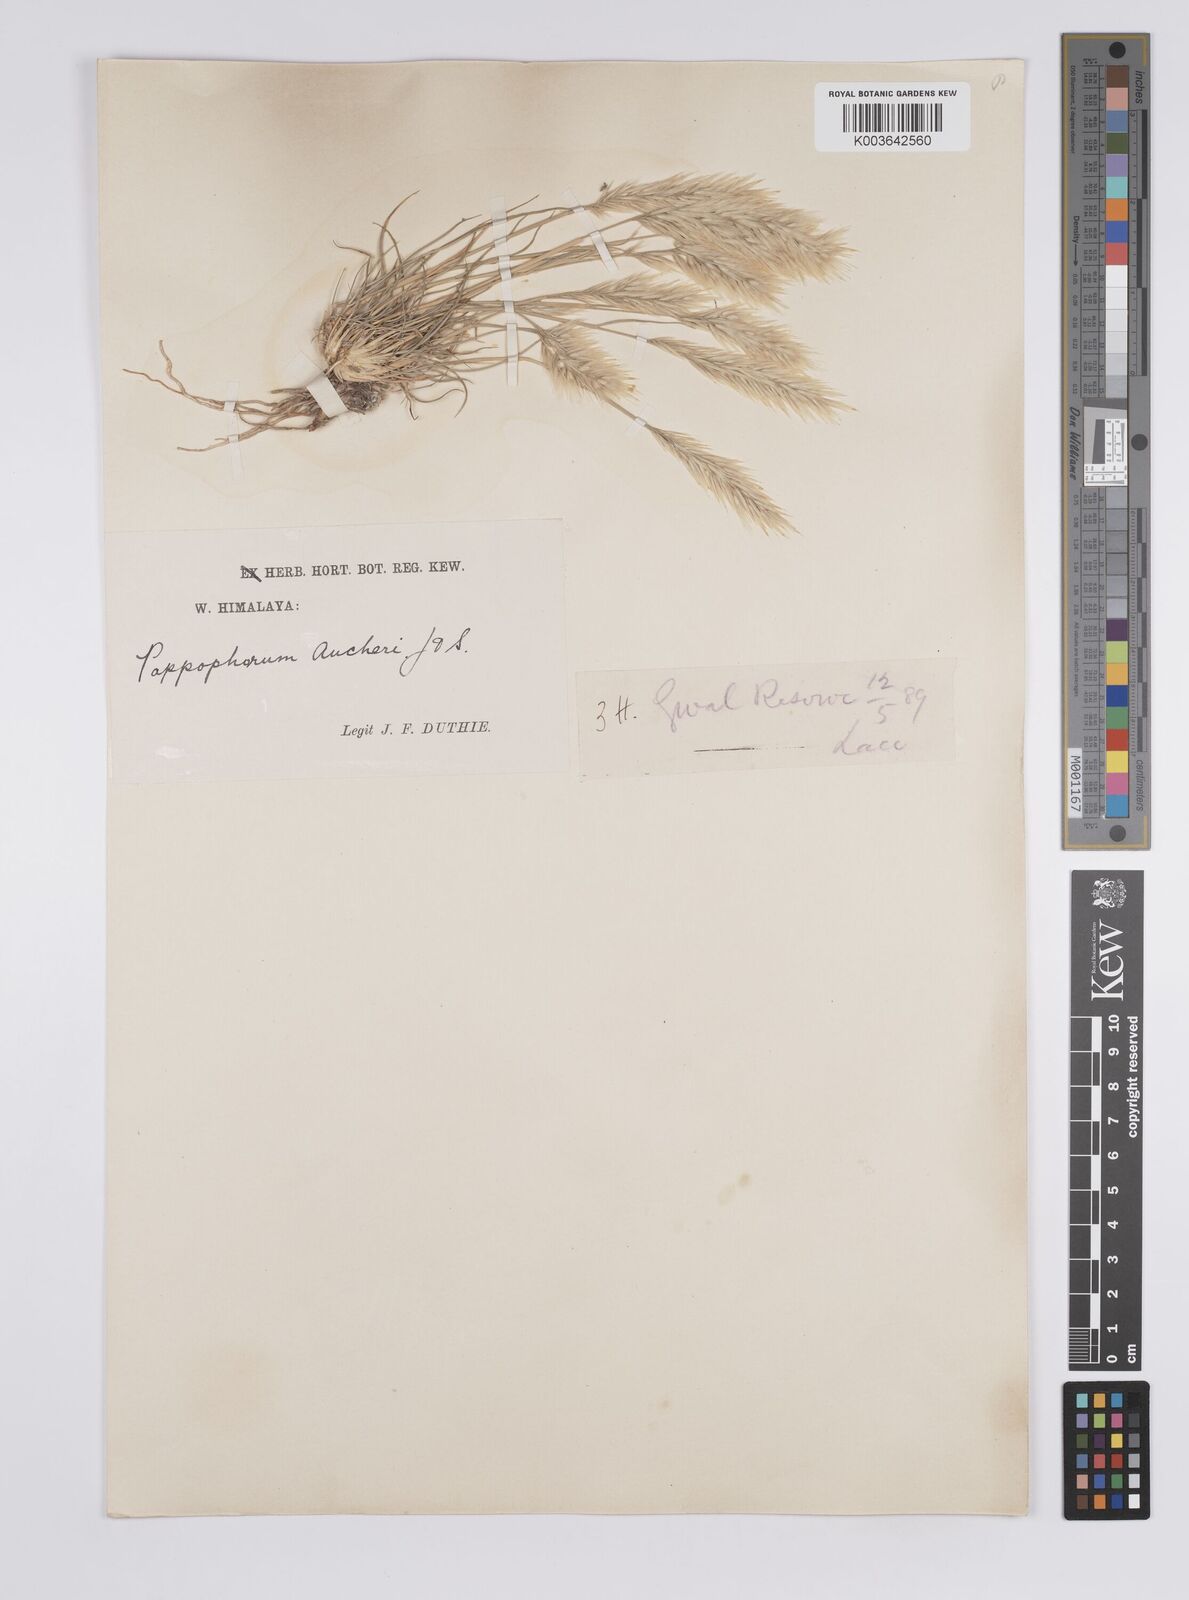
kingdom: Plantae
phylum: Tracheophyta
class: Liliopsida
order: Poales
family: Poaceae
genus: Enneapogon
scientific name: Enneapogon persicus
